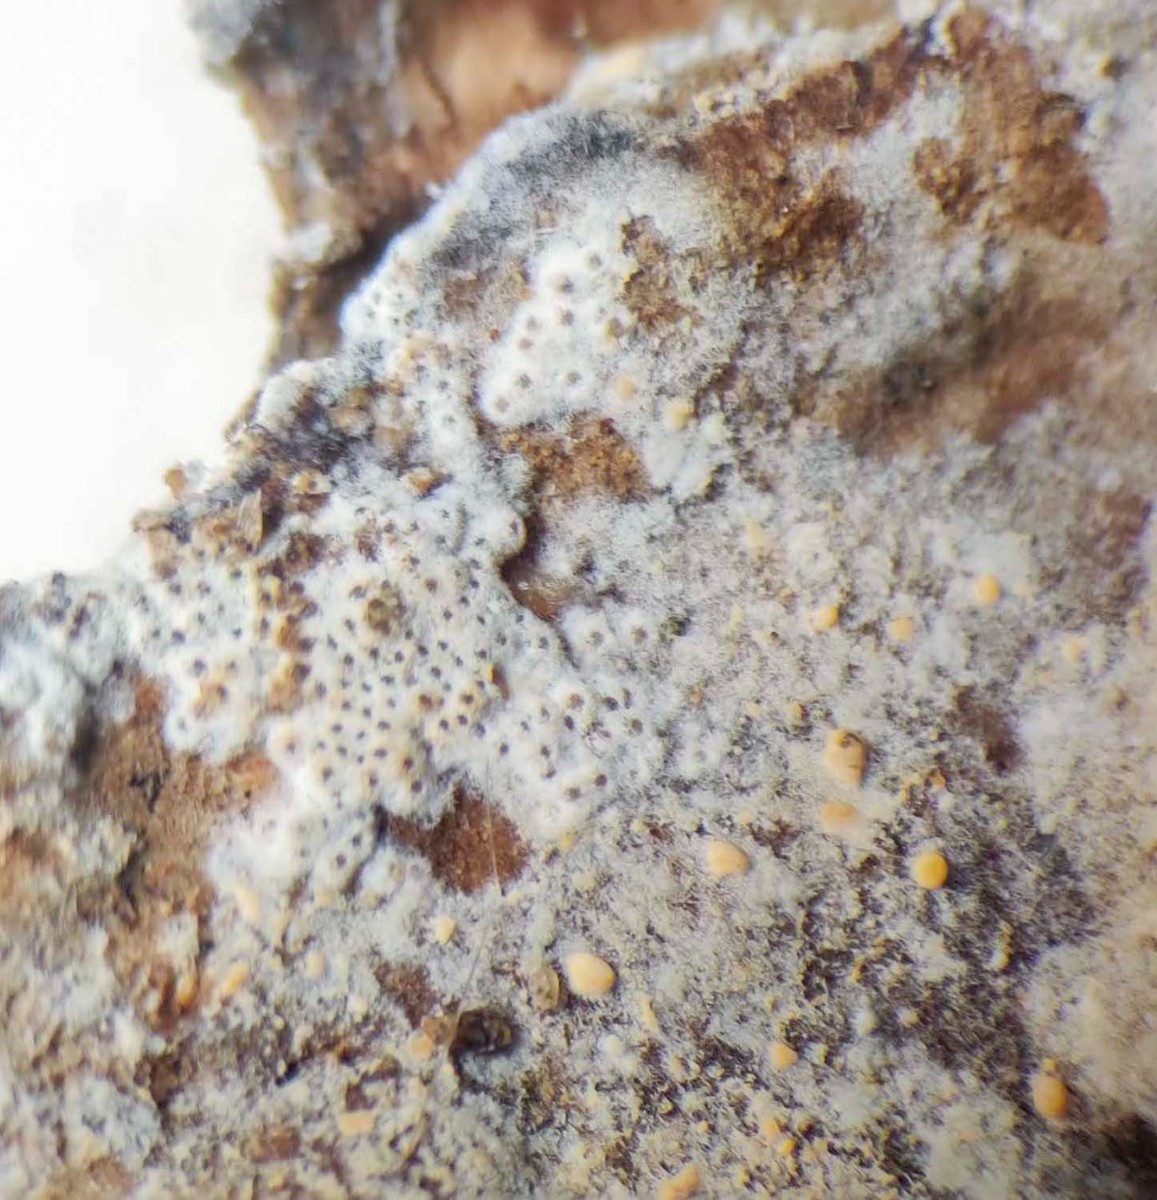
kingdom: Fungi
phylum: Ascomycota
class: Sordariomycetes
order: Hypocreales
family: Bionectriaceae
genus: Nectriopsis
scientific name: Nectriopsis oropensoides
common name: mørkøjet snyltespind
